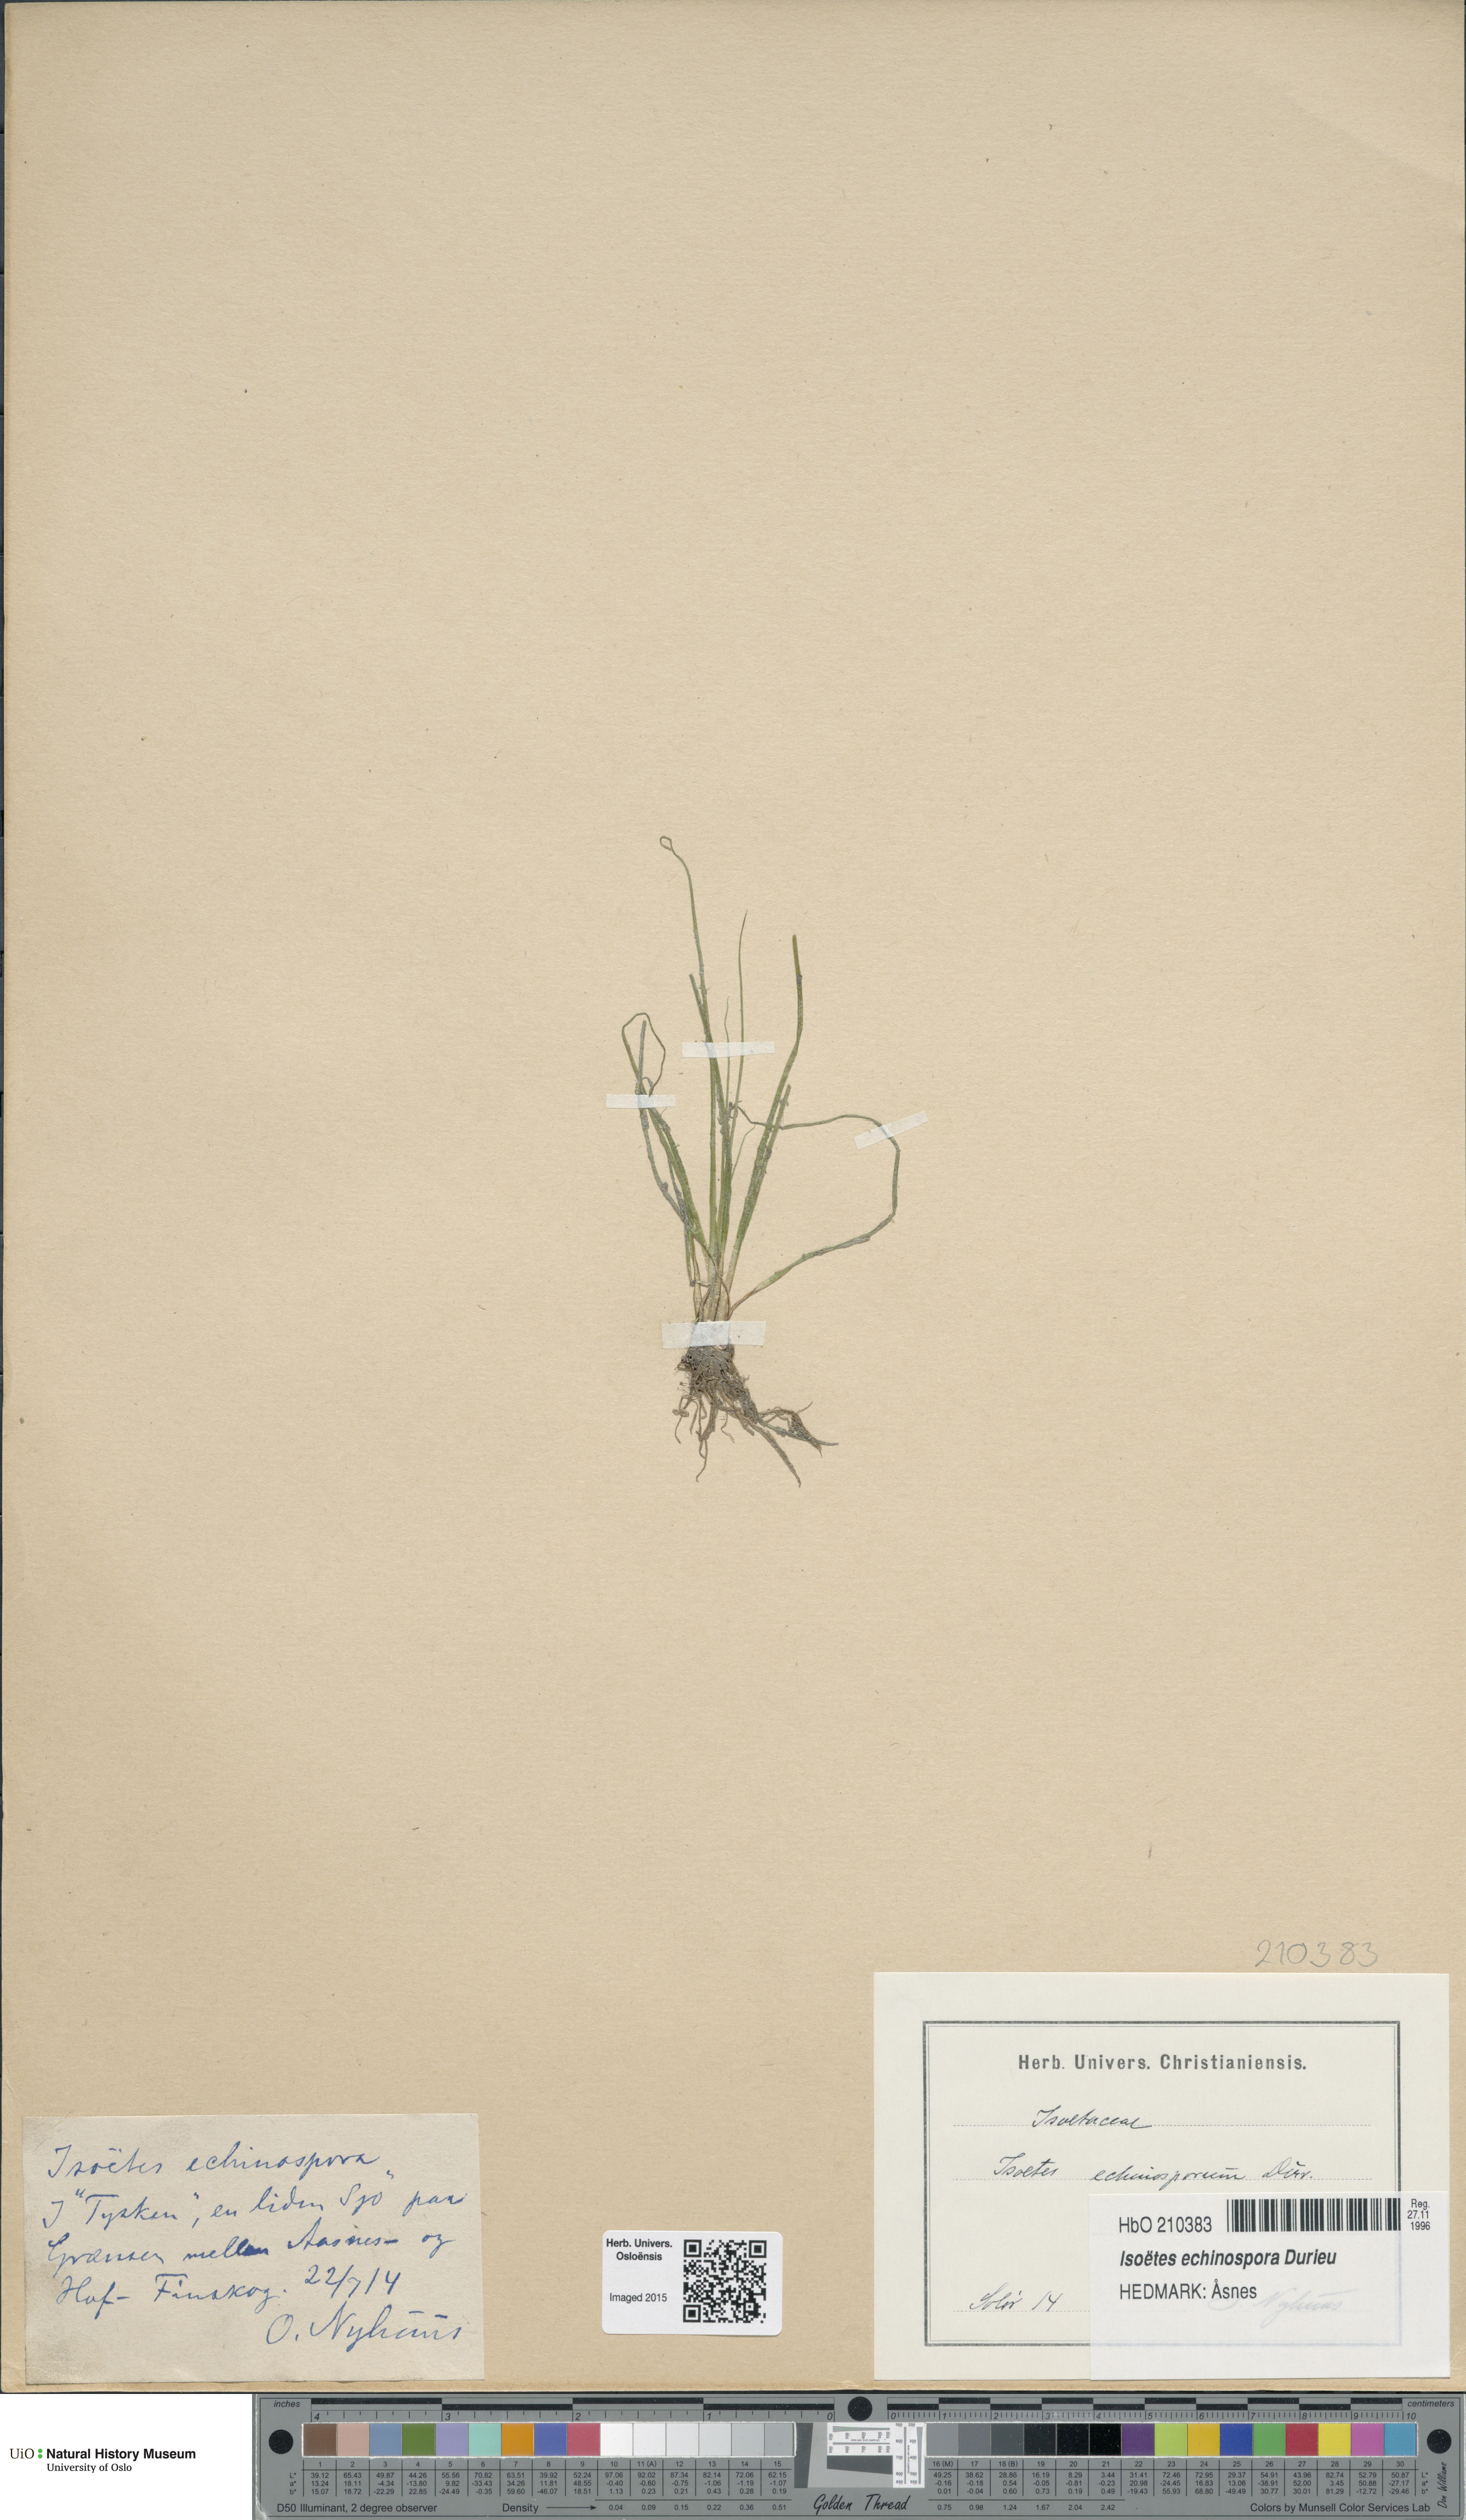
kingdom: Plantae
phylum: Tracheophyta
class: Lycopodiopsida
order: Isoetales
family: Isoetaceae
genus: Isoetes
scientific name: Isoetes echinospora
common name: Spring quillwort
